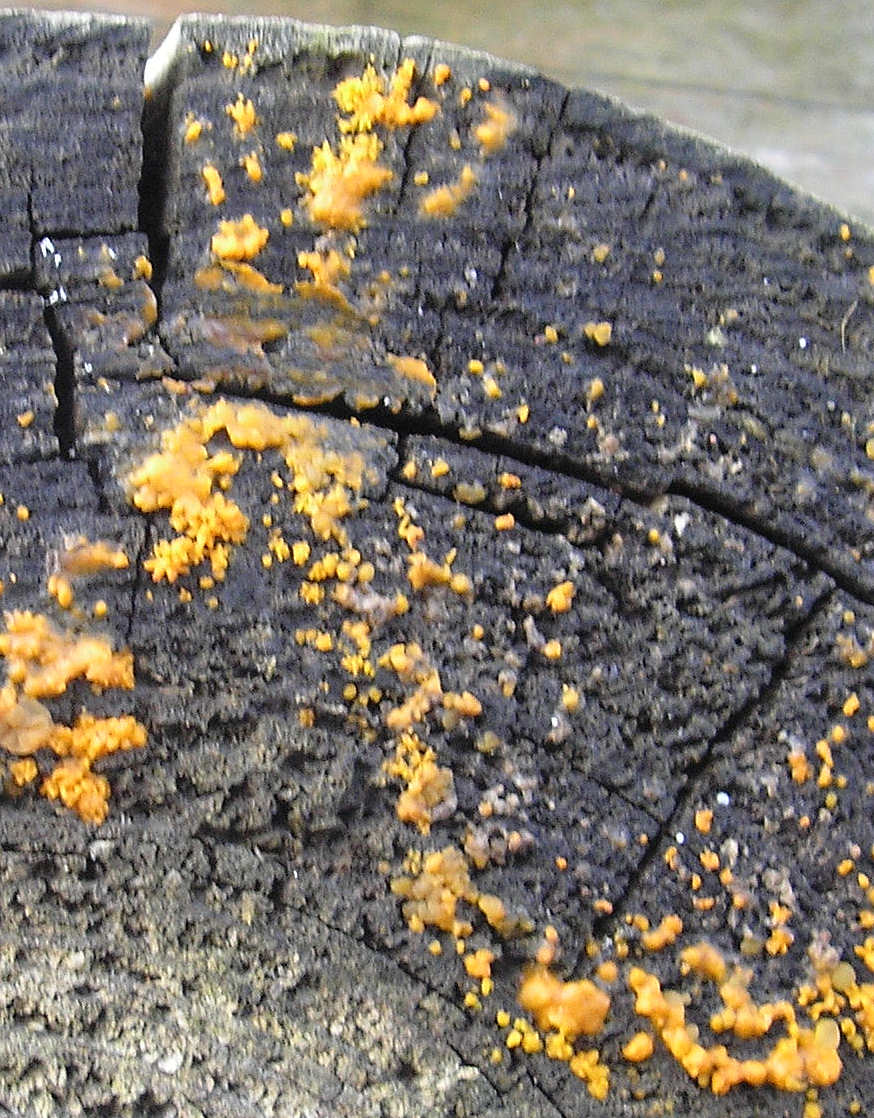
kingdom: Fungi
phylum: Basidiomycota
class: Dacrymycetes
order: Dacrymycetales
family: Dacrymycetaceae
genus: Dacrymyces
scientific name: Dacrymyces stillatus
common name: almindelig tåresvamp
